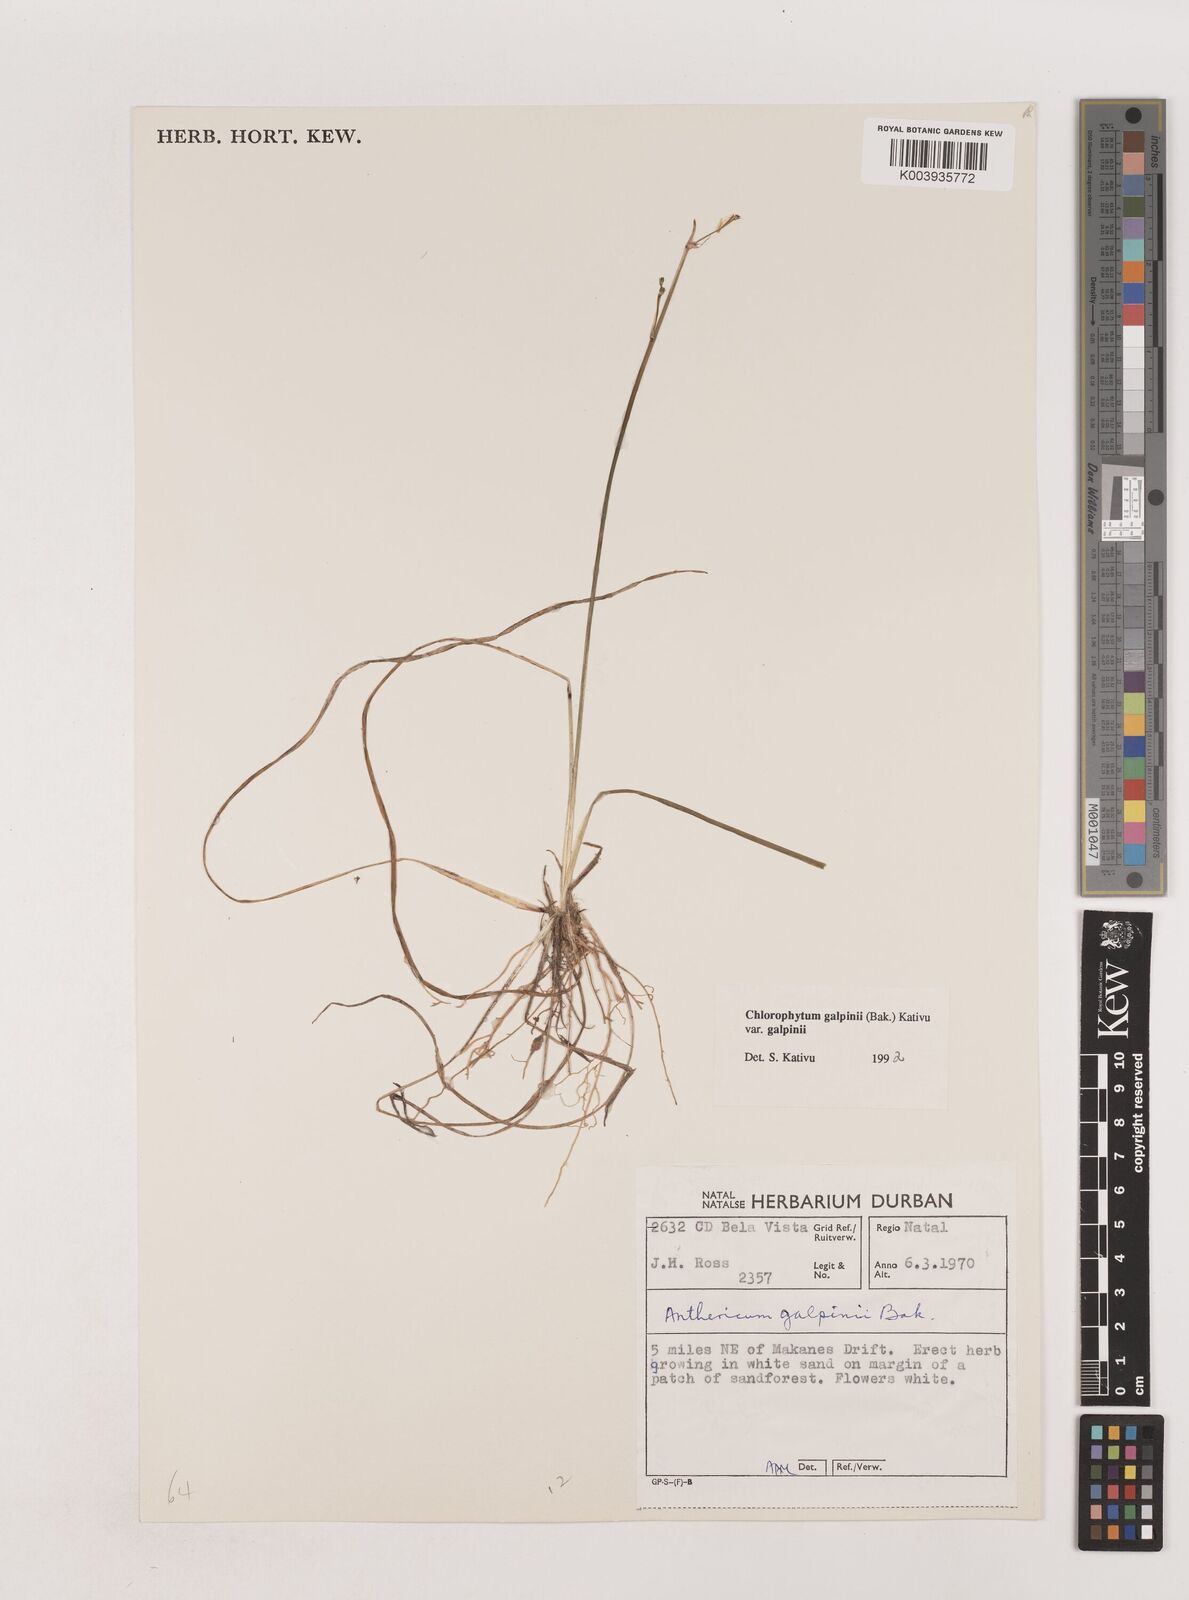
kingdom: Plantae
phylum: Tracheophyta
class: Liliopsida
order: Asparagales
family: Asparagaceae
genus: Chlorophytum
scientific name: Chlorophytum galpinii
